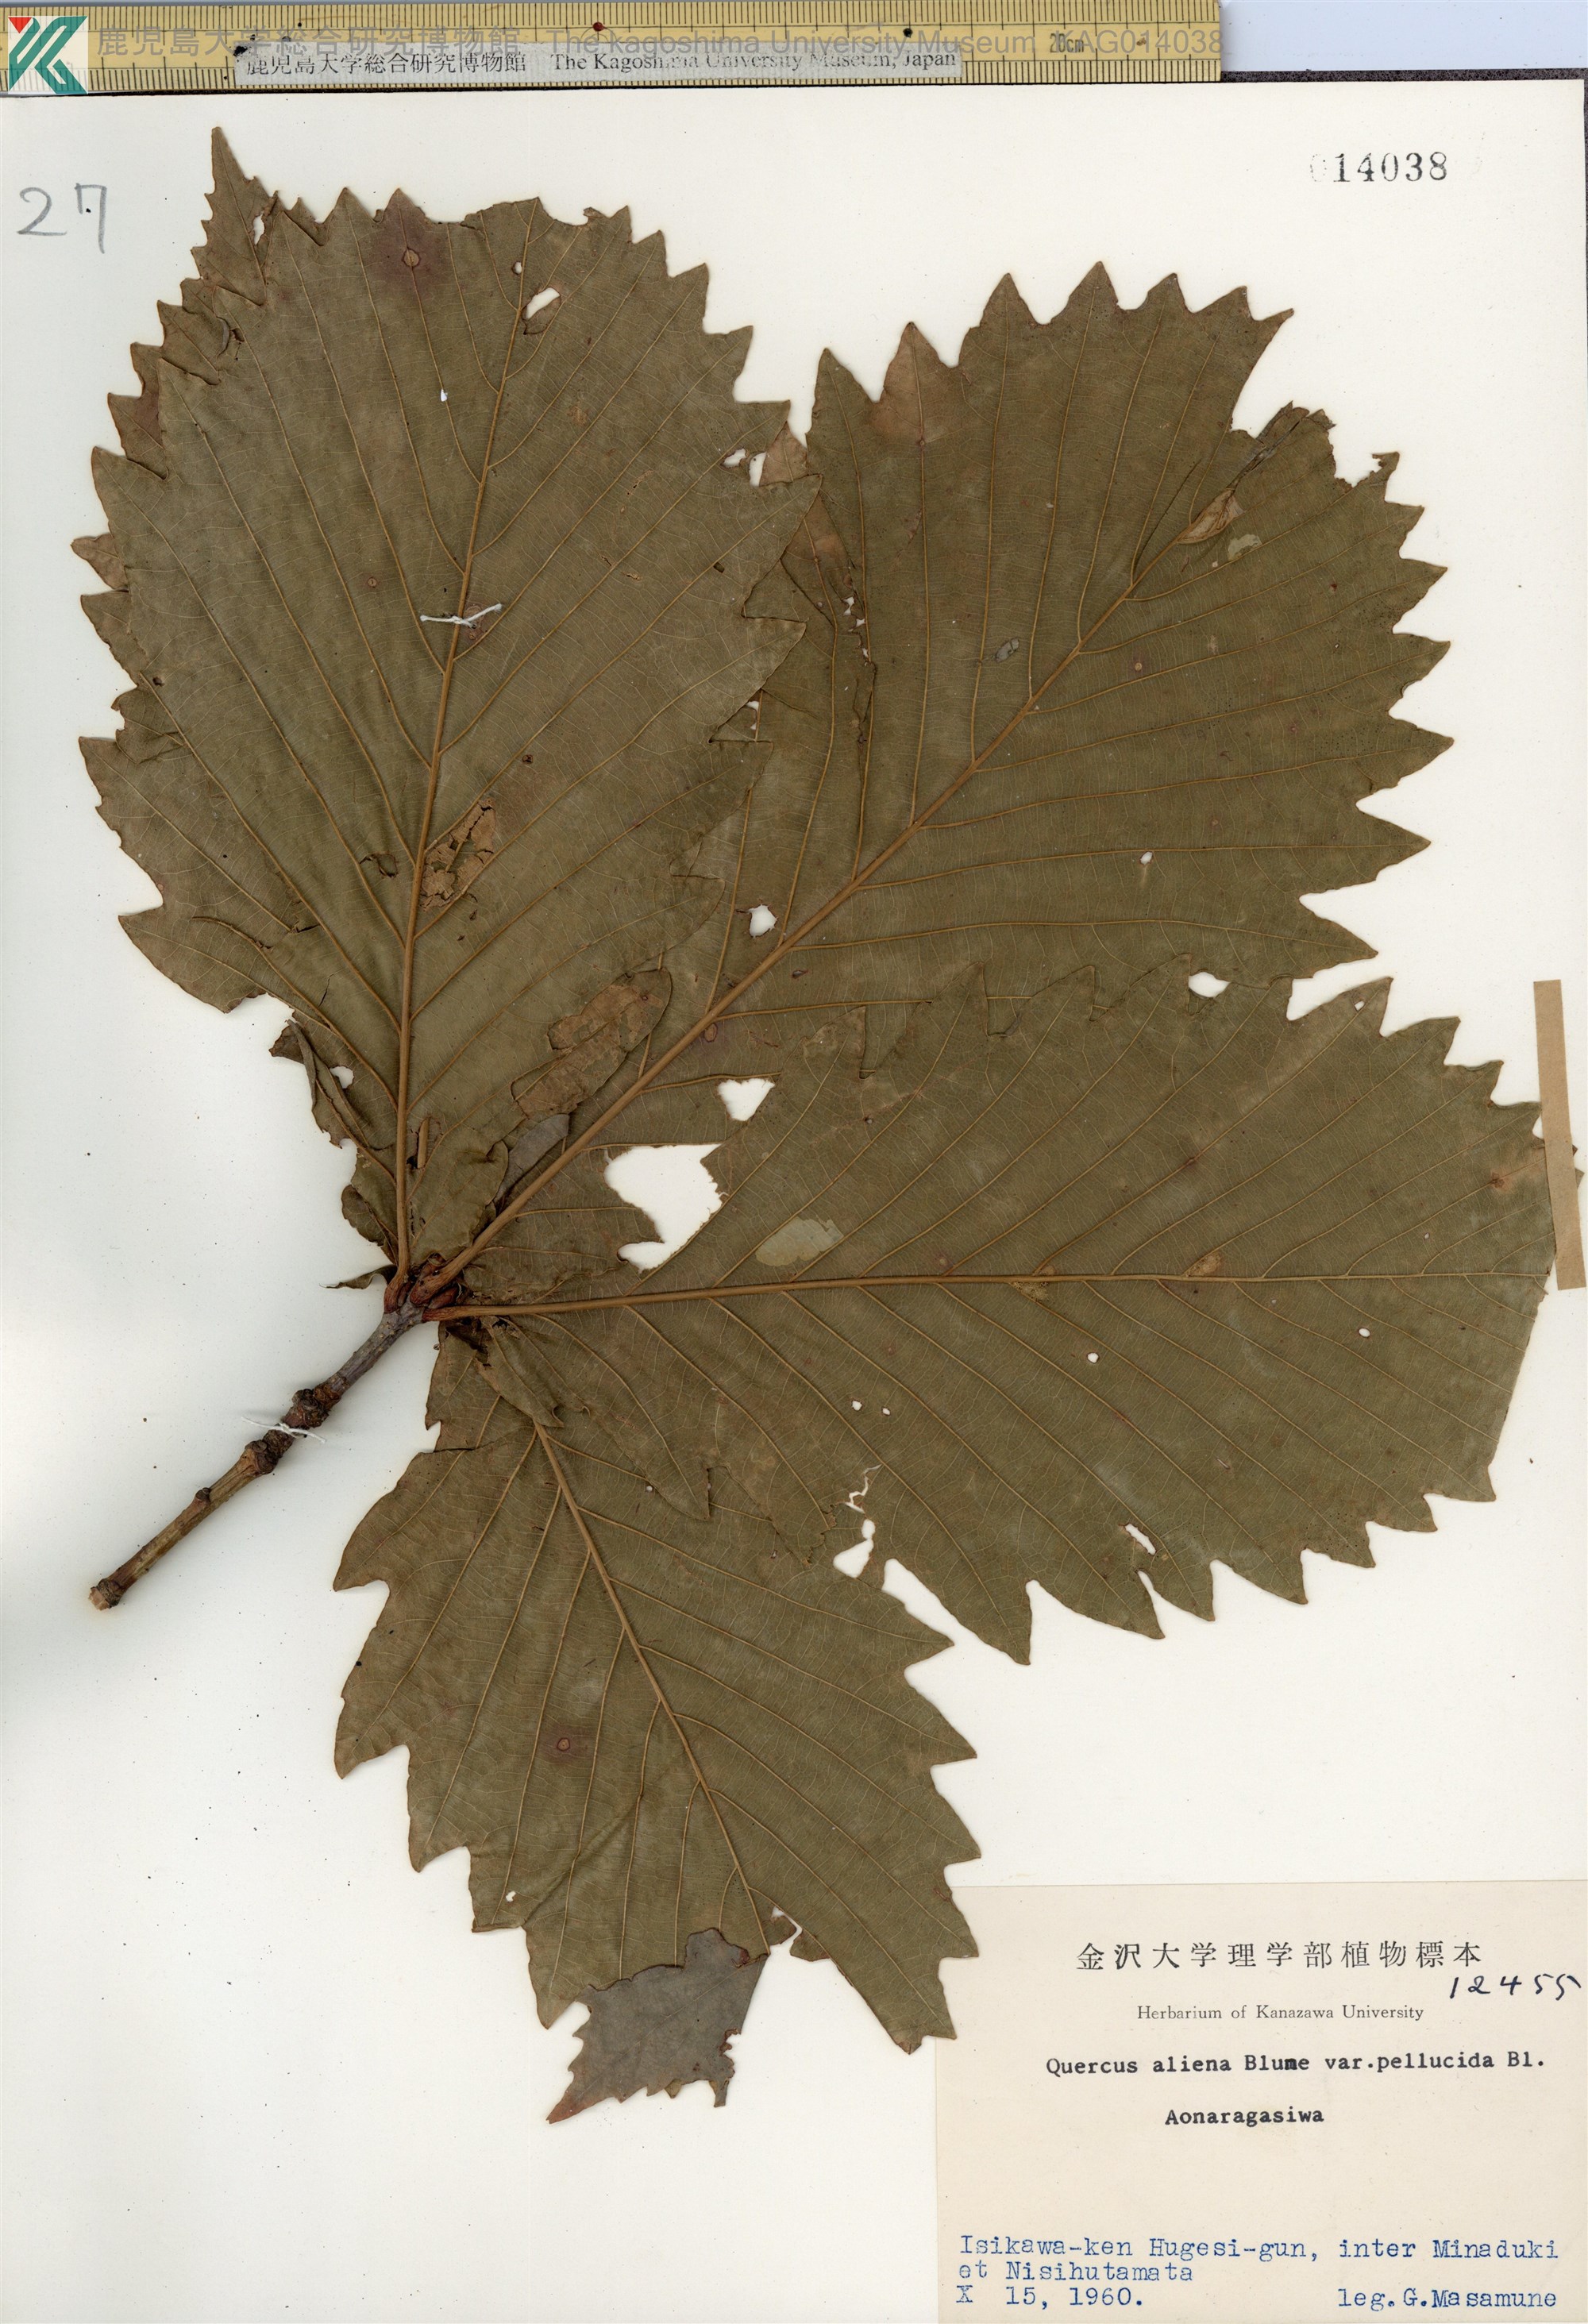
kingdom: Plantae
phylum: Tracheophyta
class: Magnoliopsida
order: Fagales
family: Fagaceae
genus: Quercus
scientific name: Quercus crispula
